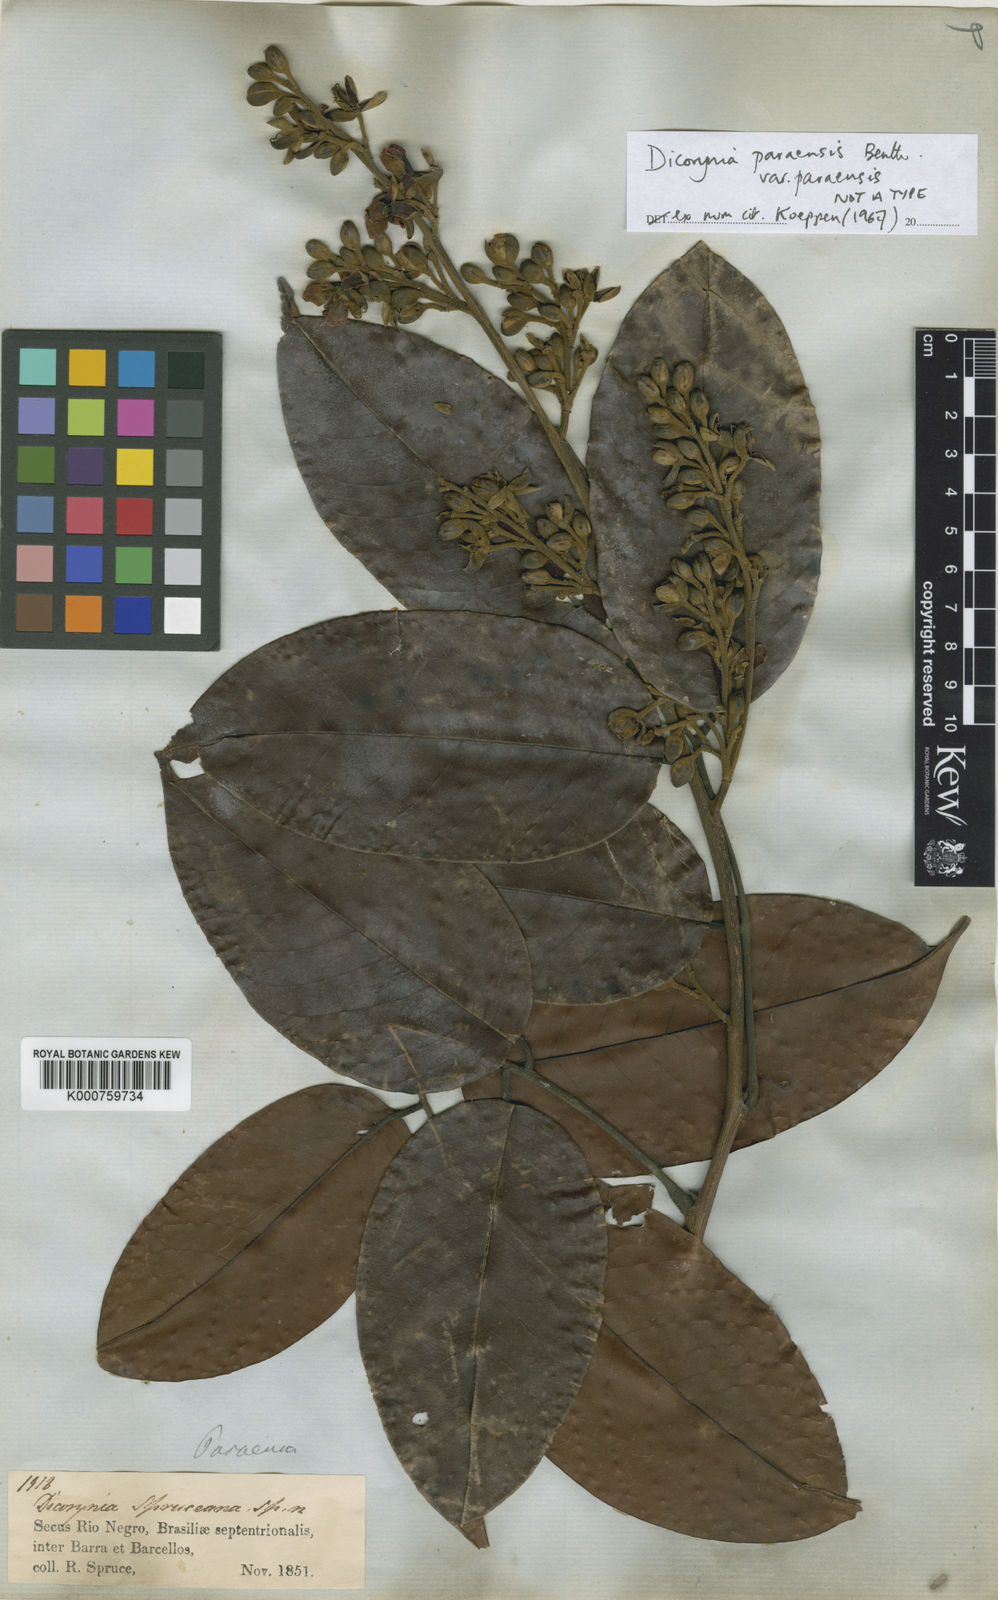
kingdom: Plantae
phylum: Tracheophyta
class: Magnoliopsida
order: Fabales
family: Fabaceae
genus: Dicorynia
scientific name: Dicorynia paraensis
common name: Angelique
